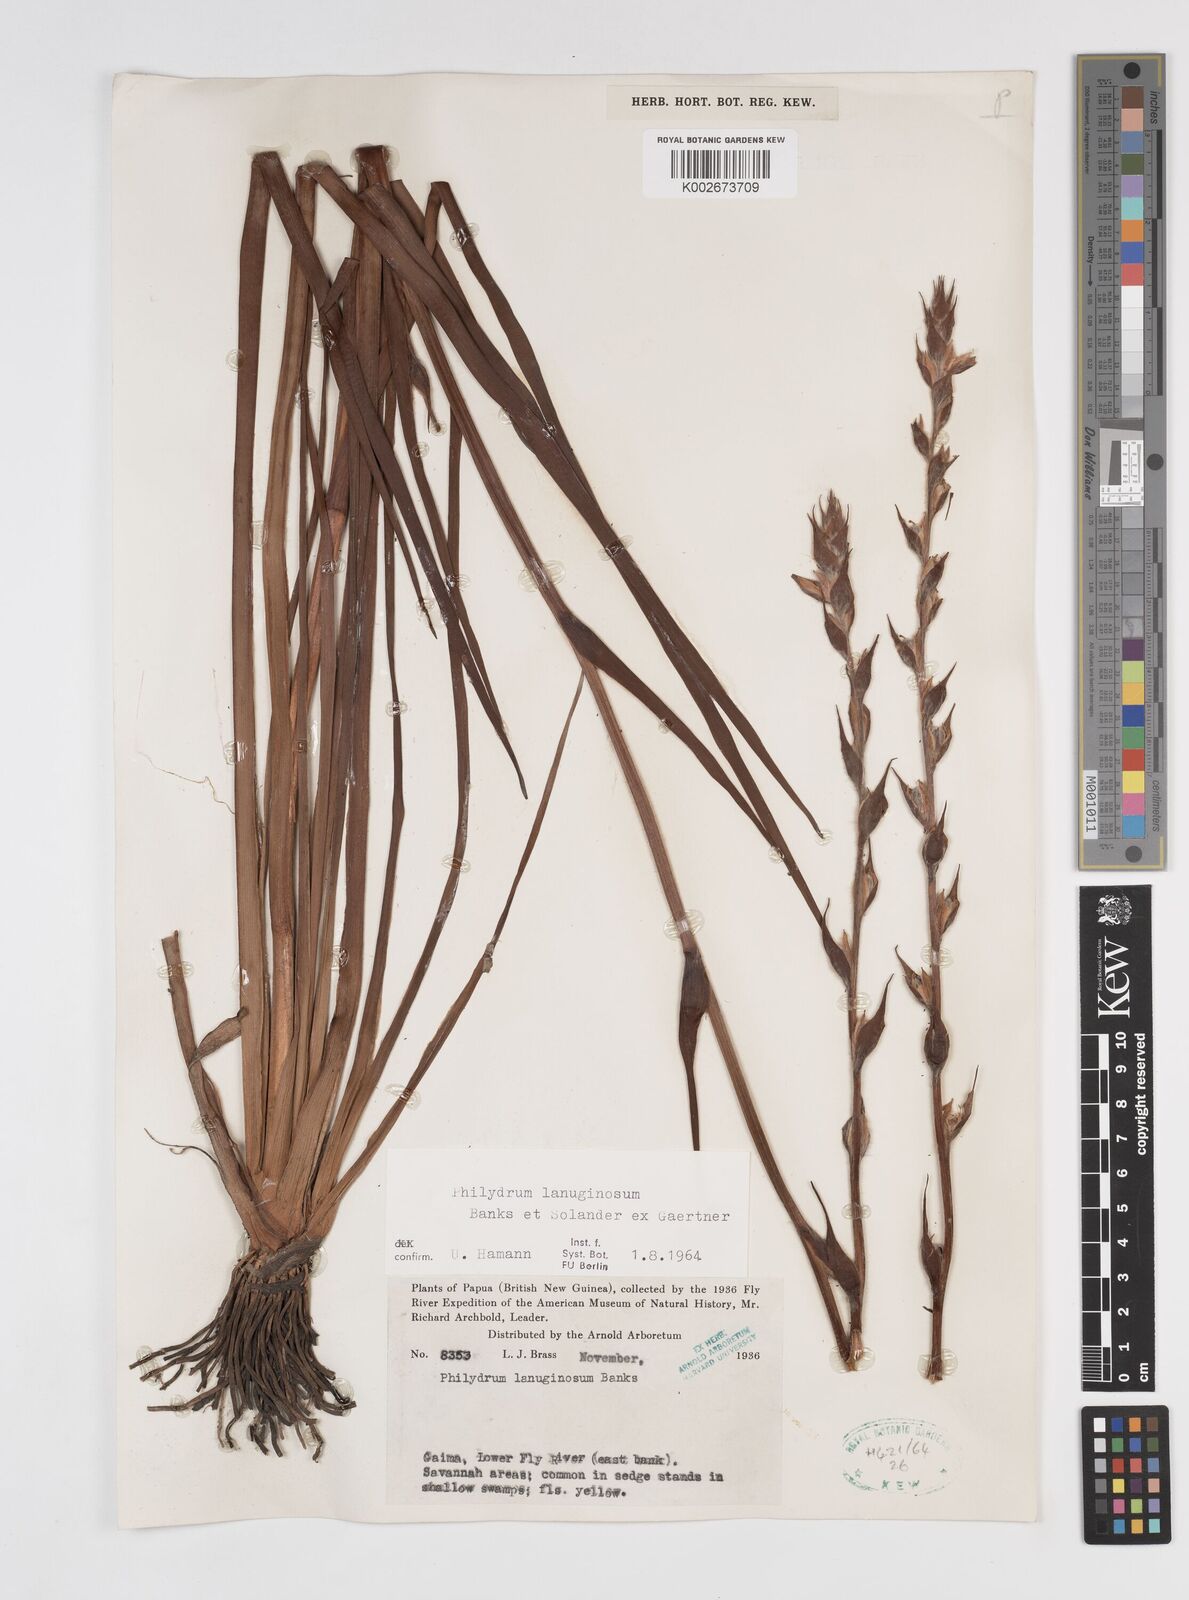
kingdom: Plantae
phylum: Tracheophyta
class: Liliopsida
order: Commelinales
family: Philydraceae
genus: Philydrum
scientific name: Philydrum lanuginosum
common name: Woolly frog's mouth
